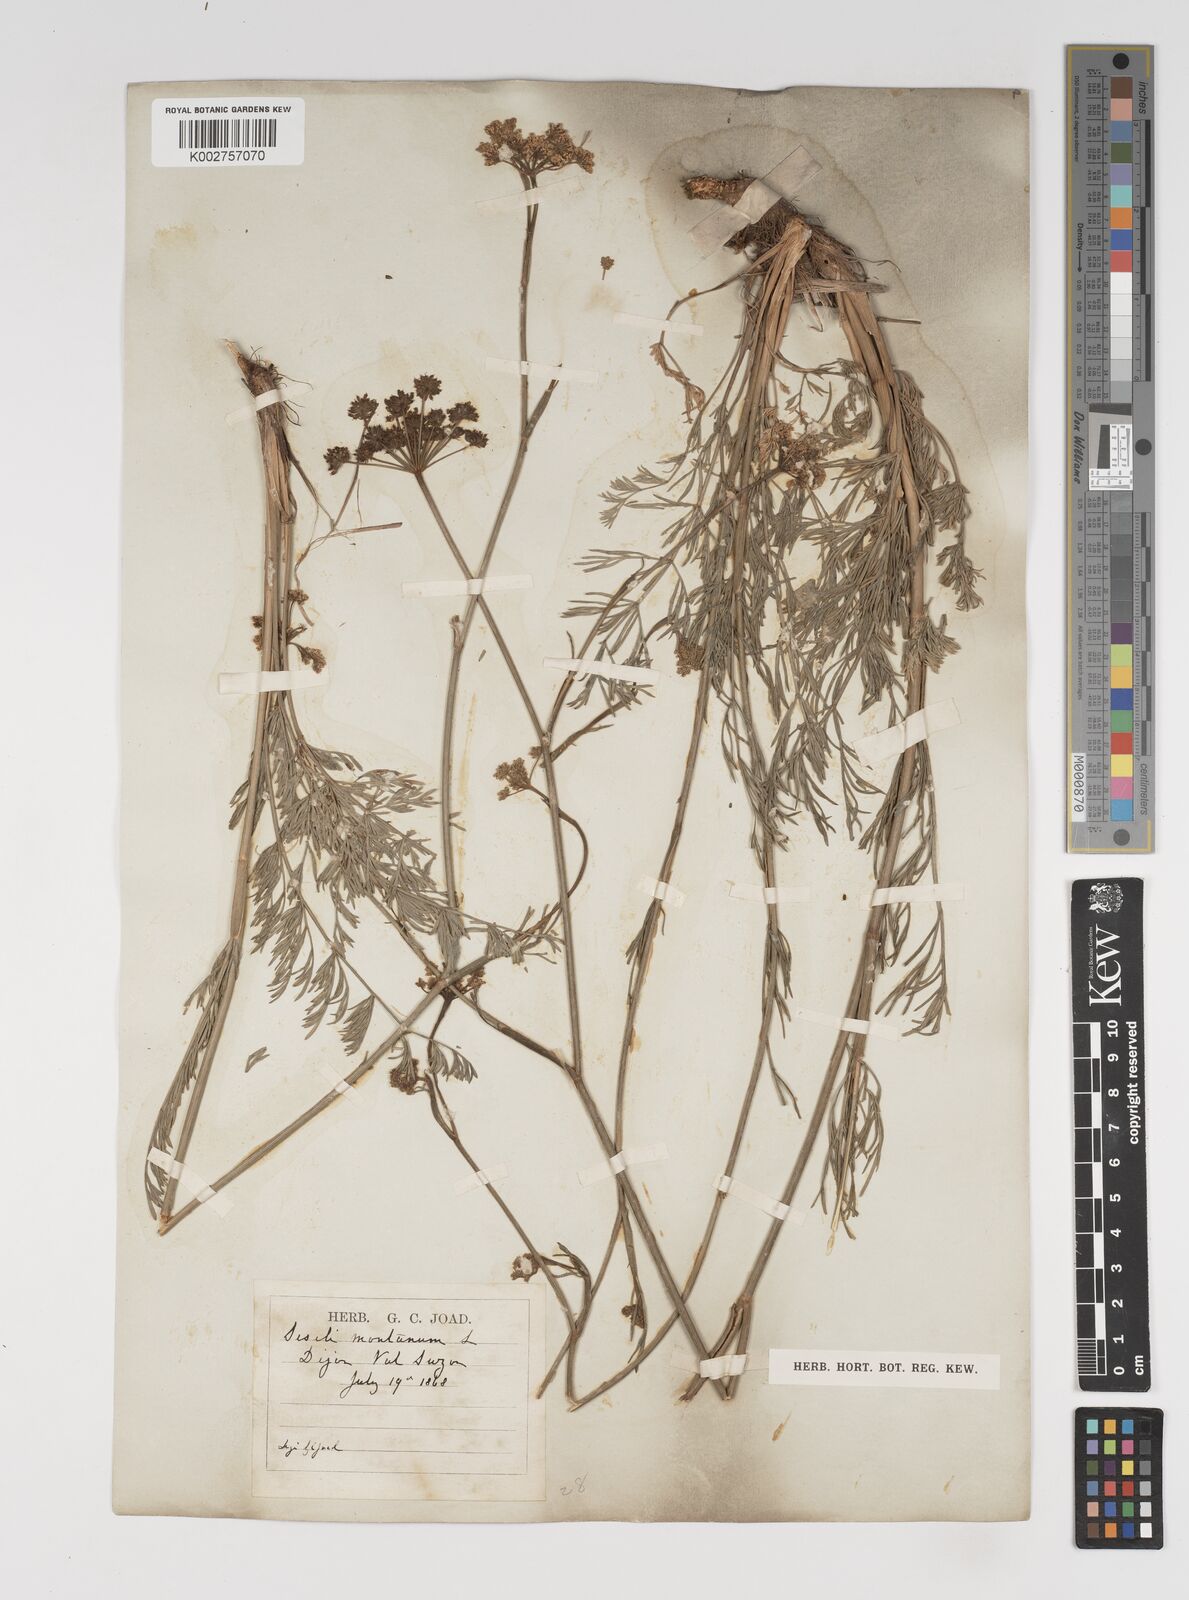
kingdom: Plantae
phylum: Tracheophyta
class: Magnoliopsida
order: Apiales
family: Apiaceae
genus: Seseli
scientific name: Seseli montanum
